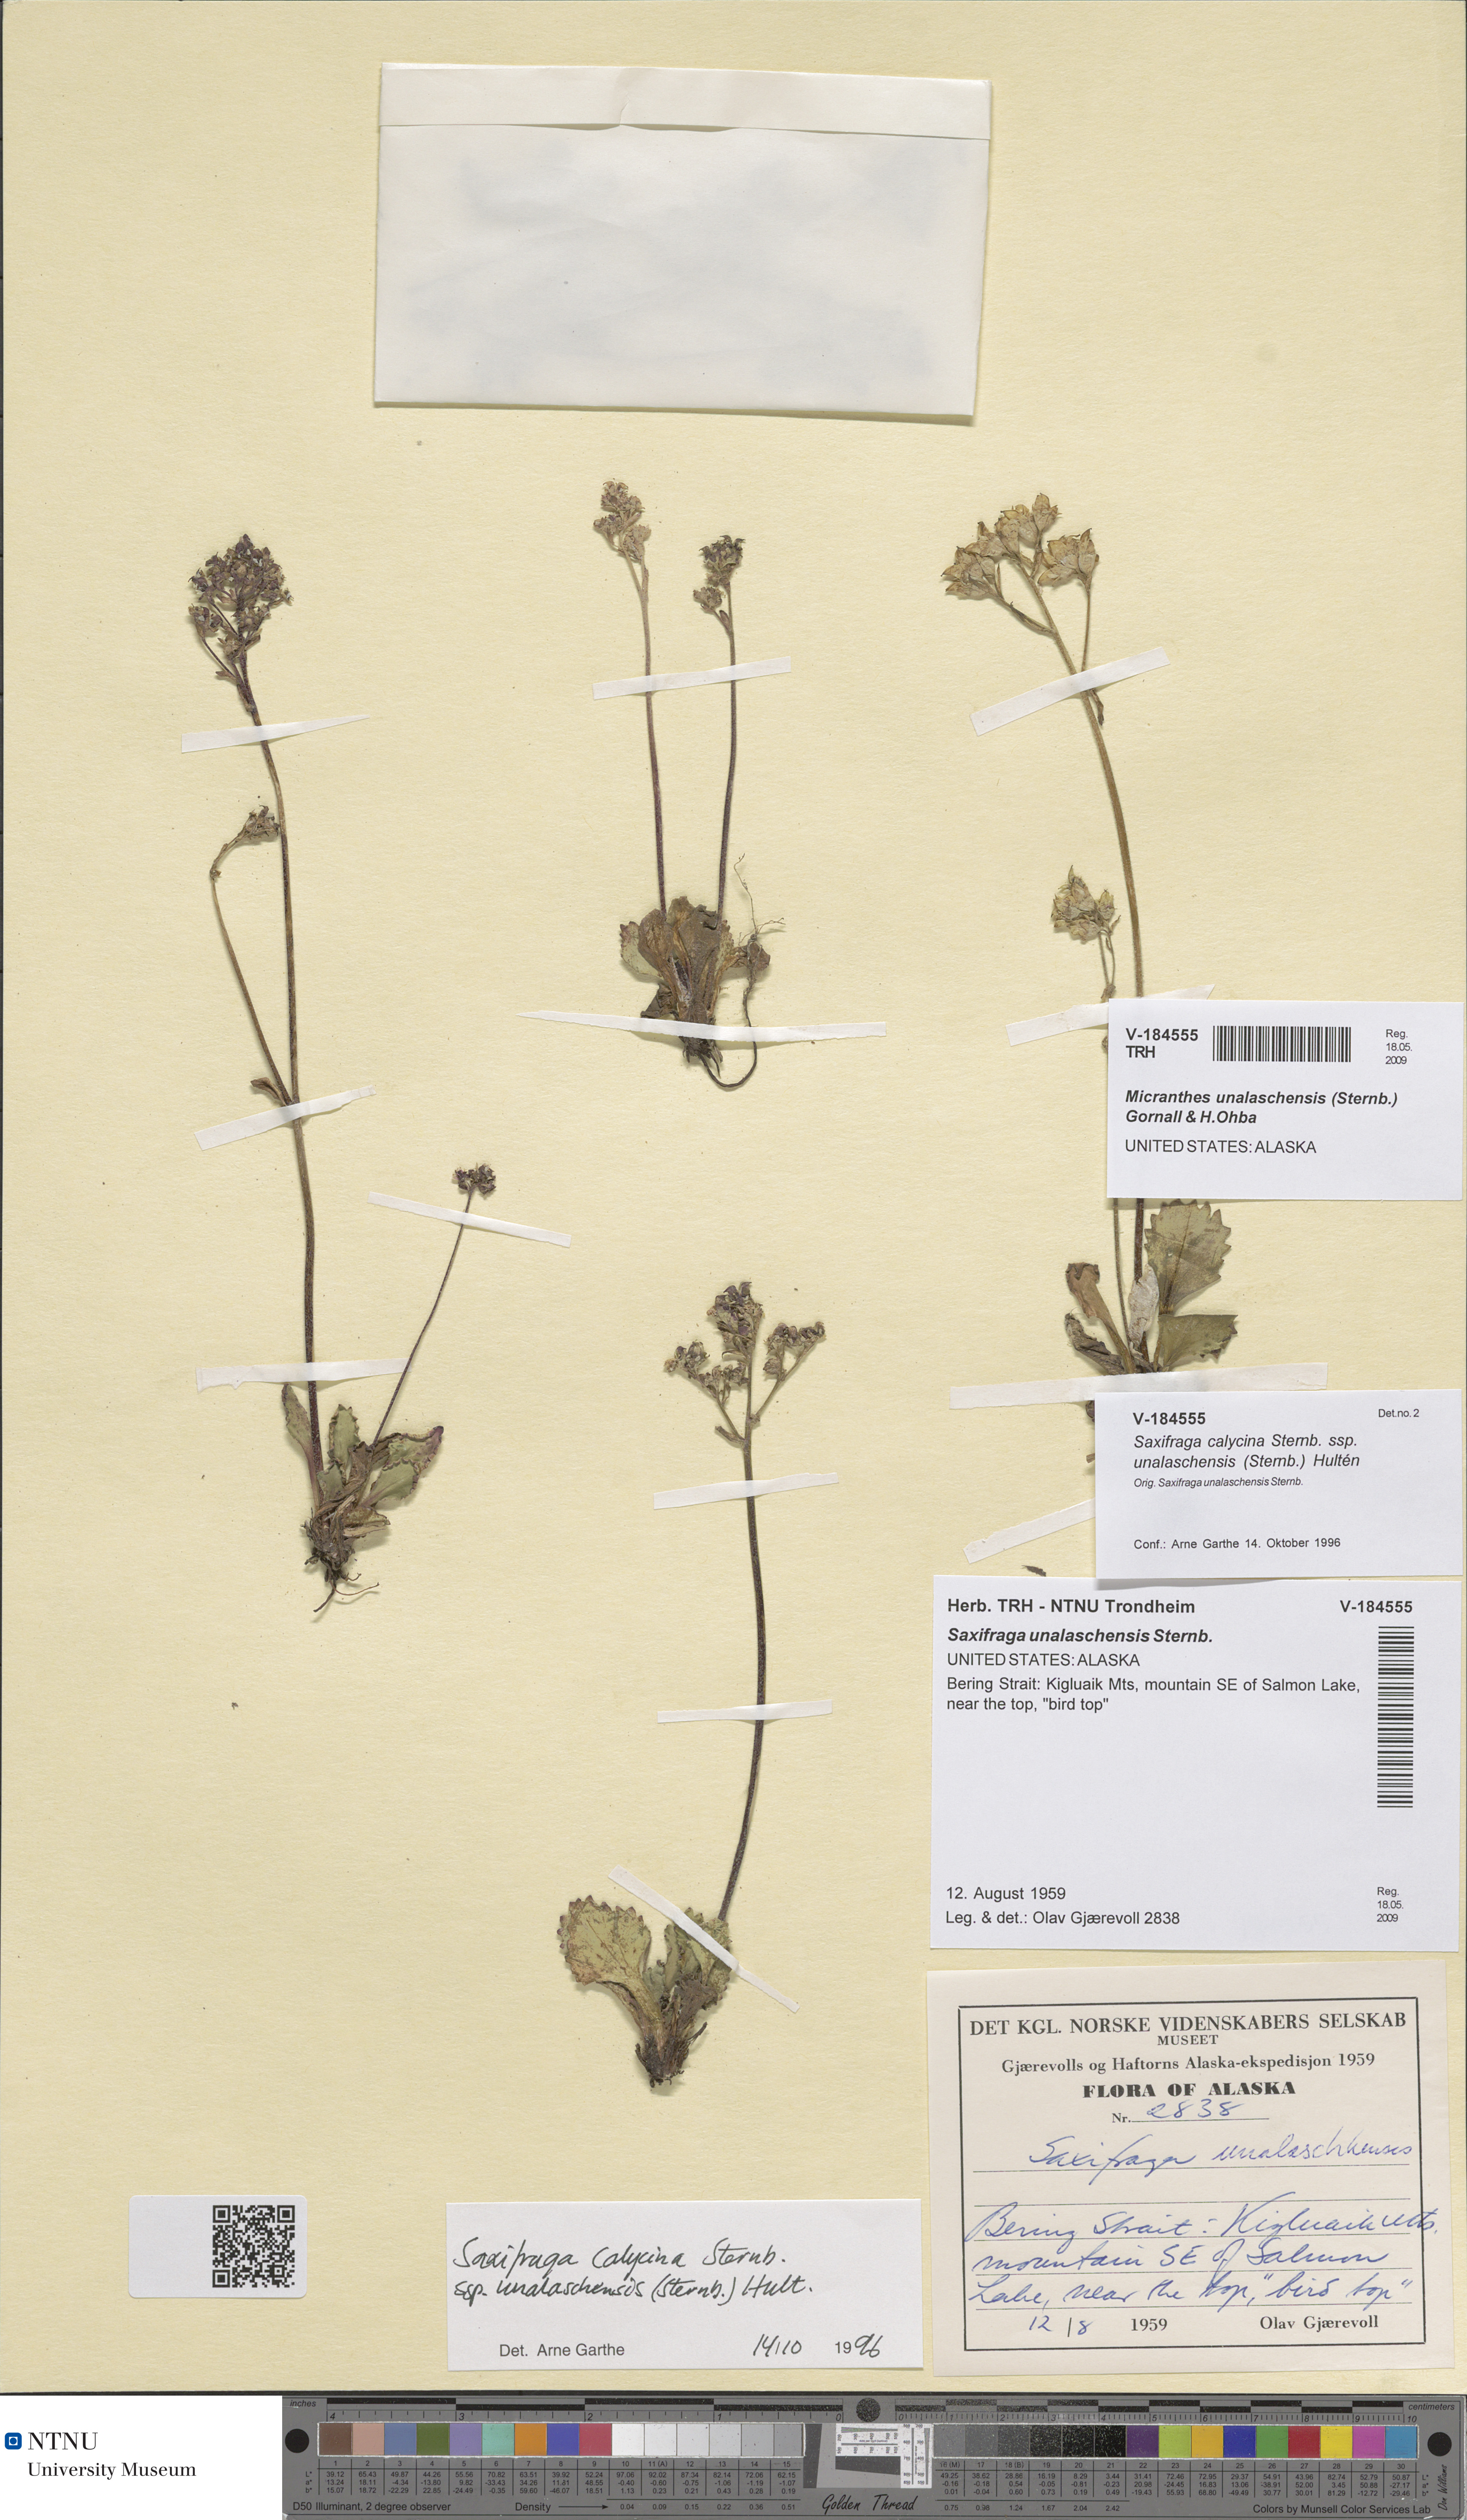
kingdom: Plantae
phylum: Tracheophyta
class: Magnoliopsida
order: Saxifragales
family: Saxifragaceae
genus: Micranthes
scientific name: Micranthes unalaschcensis
